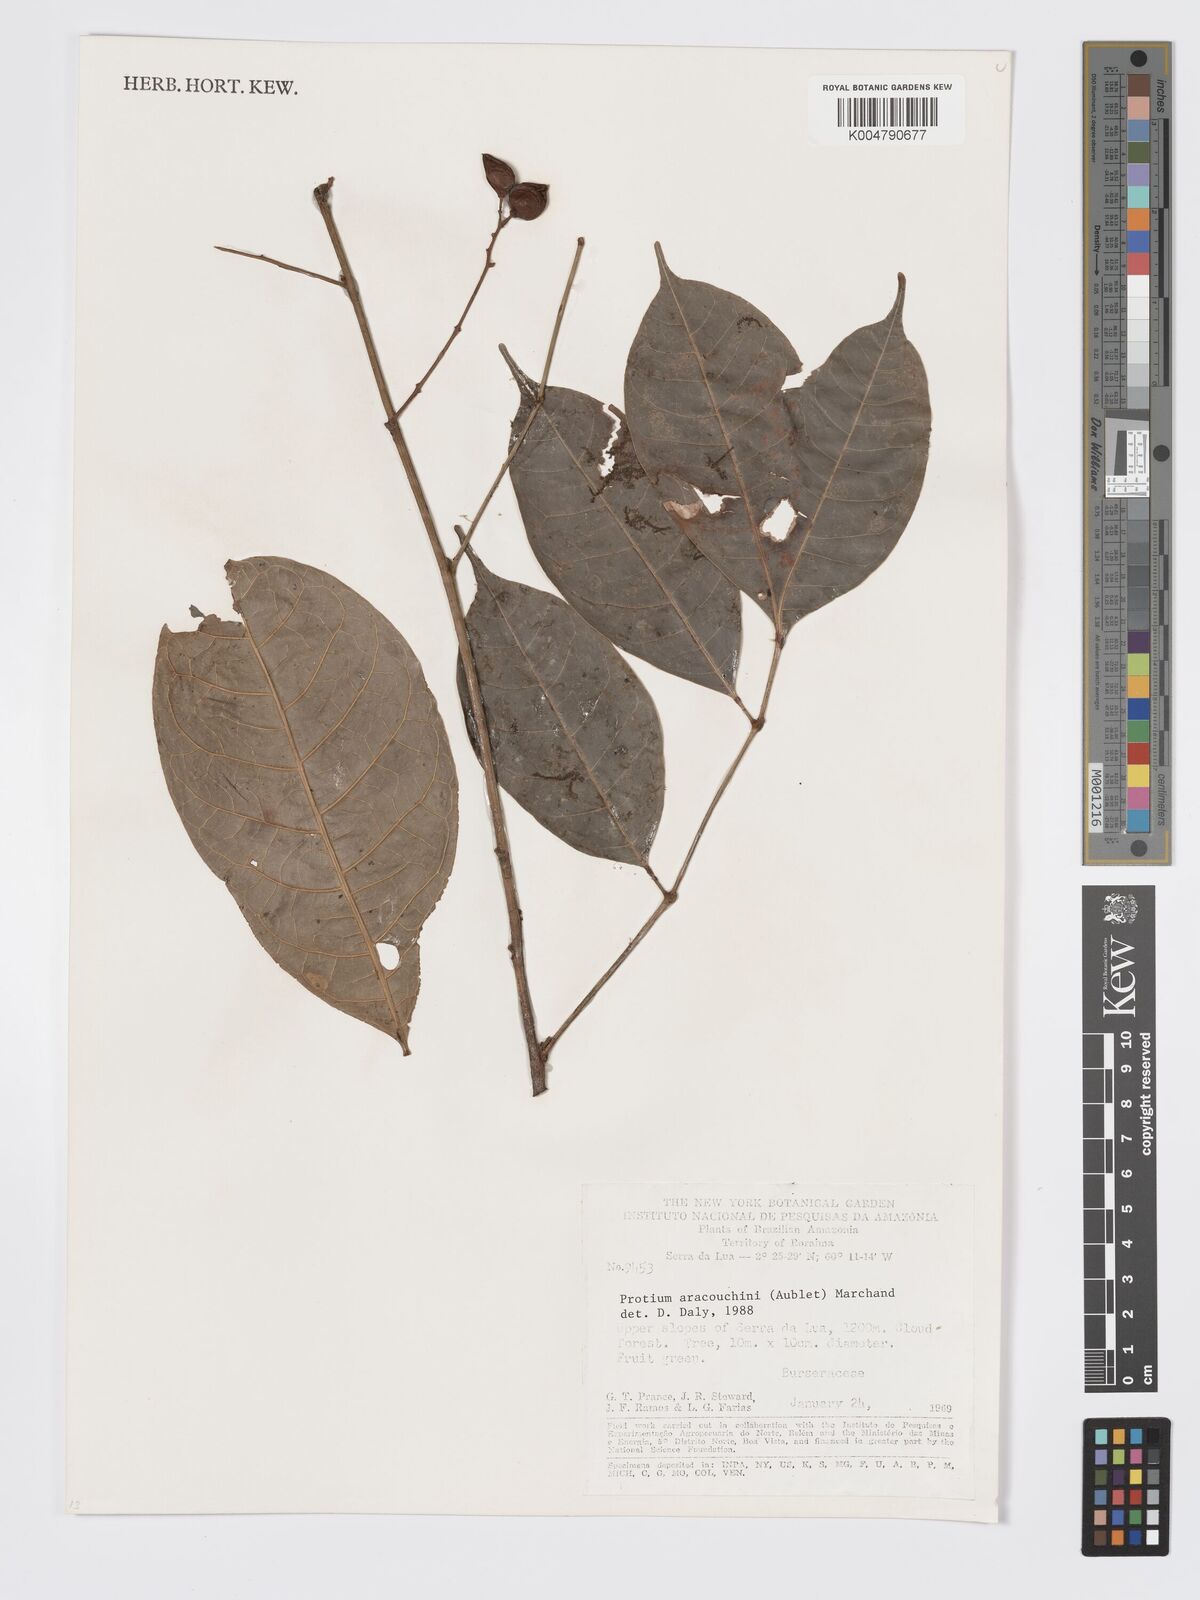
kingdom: Plantae
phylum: Tracheophyta
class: Magnoliopsida
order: Sapindales
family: Burseraceae
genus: Protium
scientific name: Protium aracouchini
